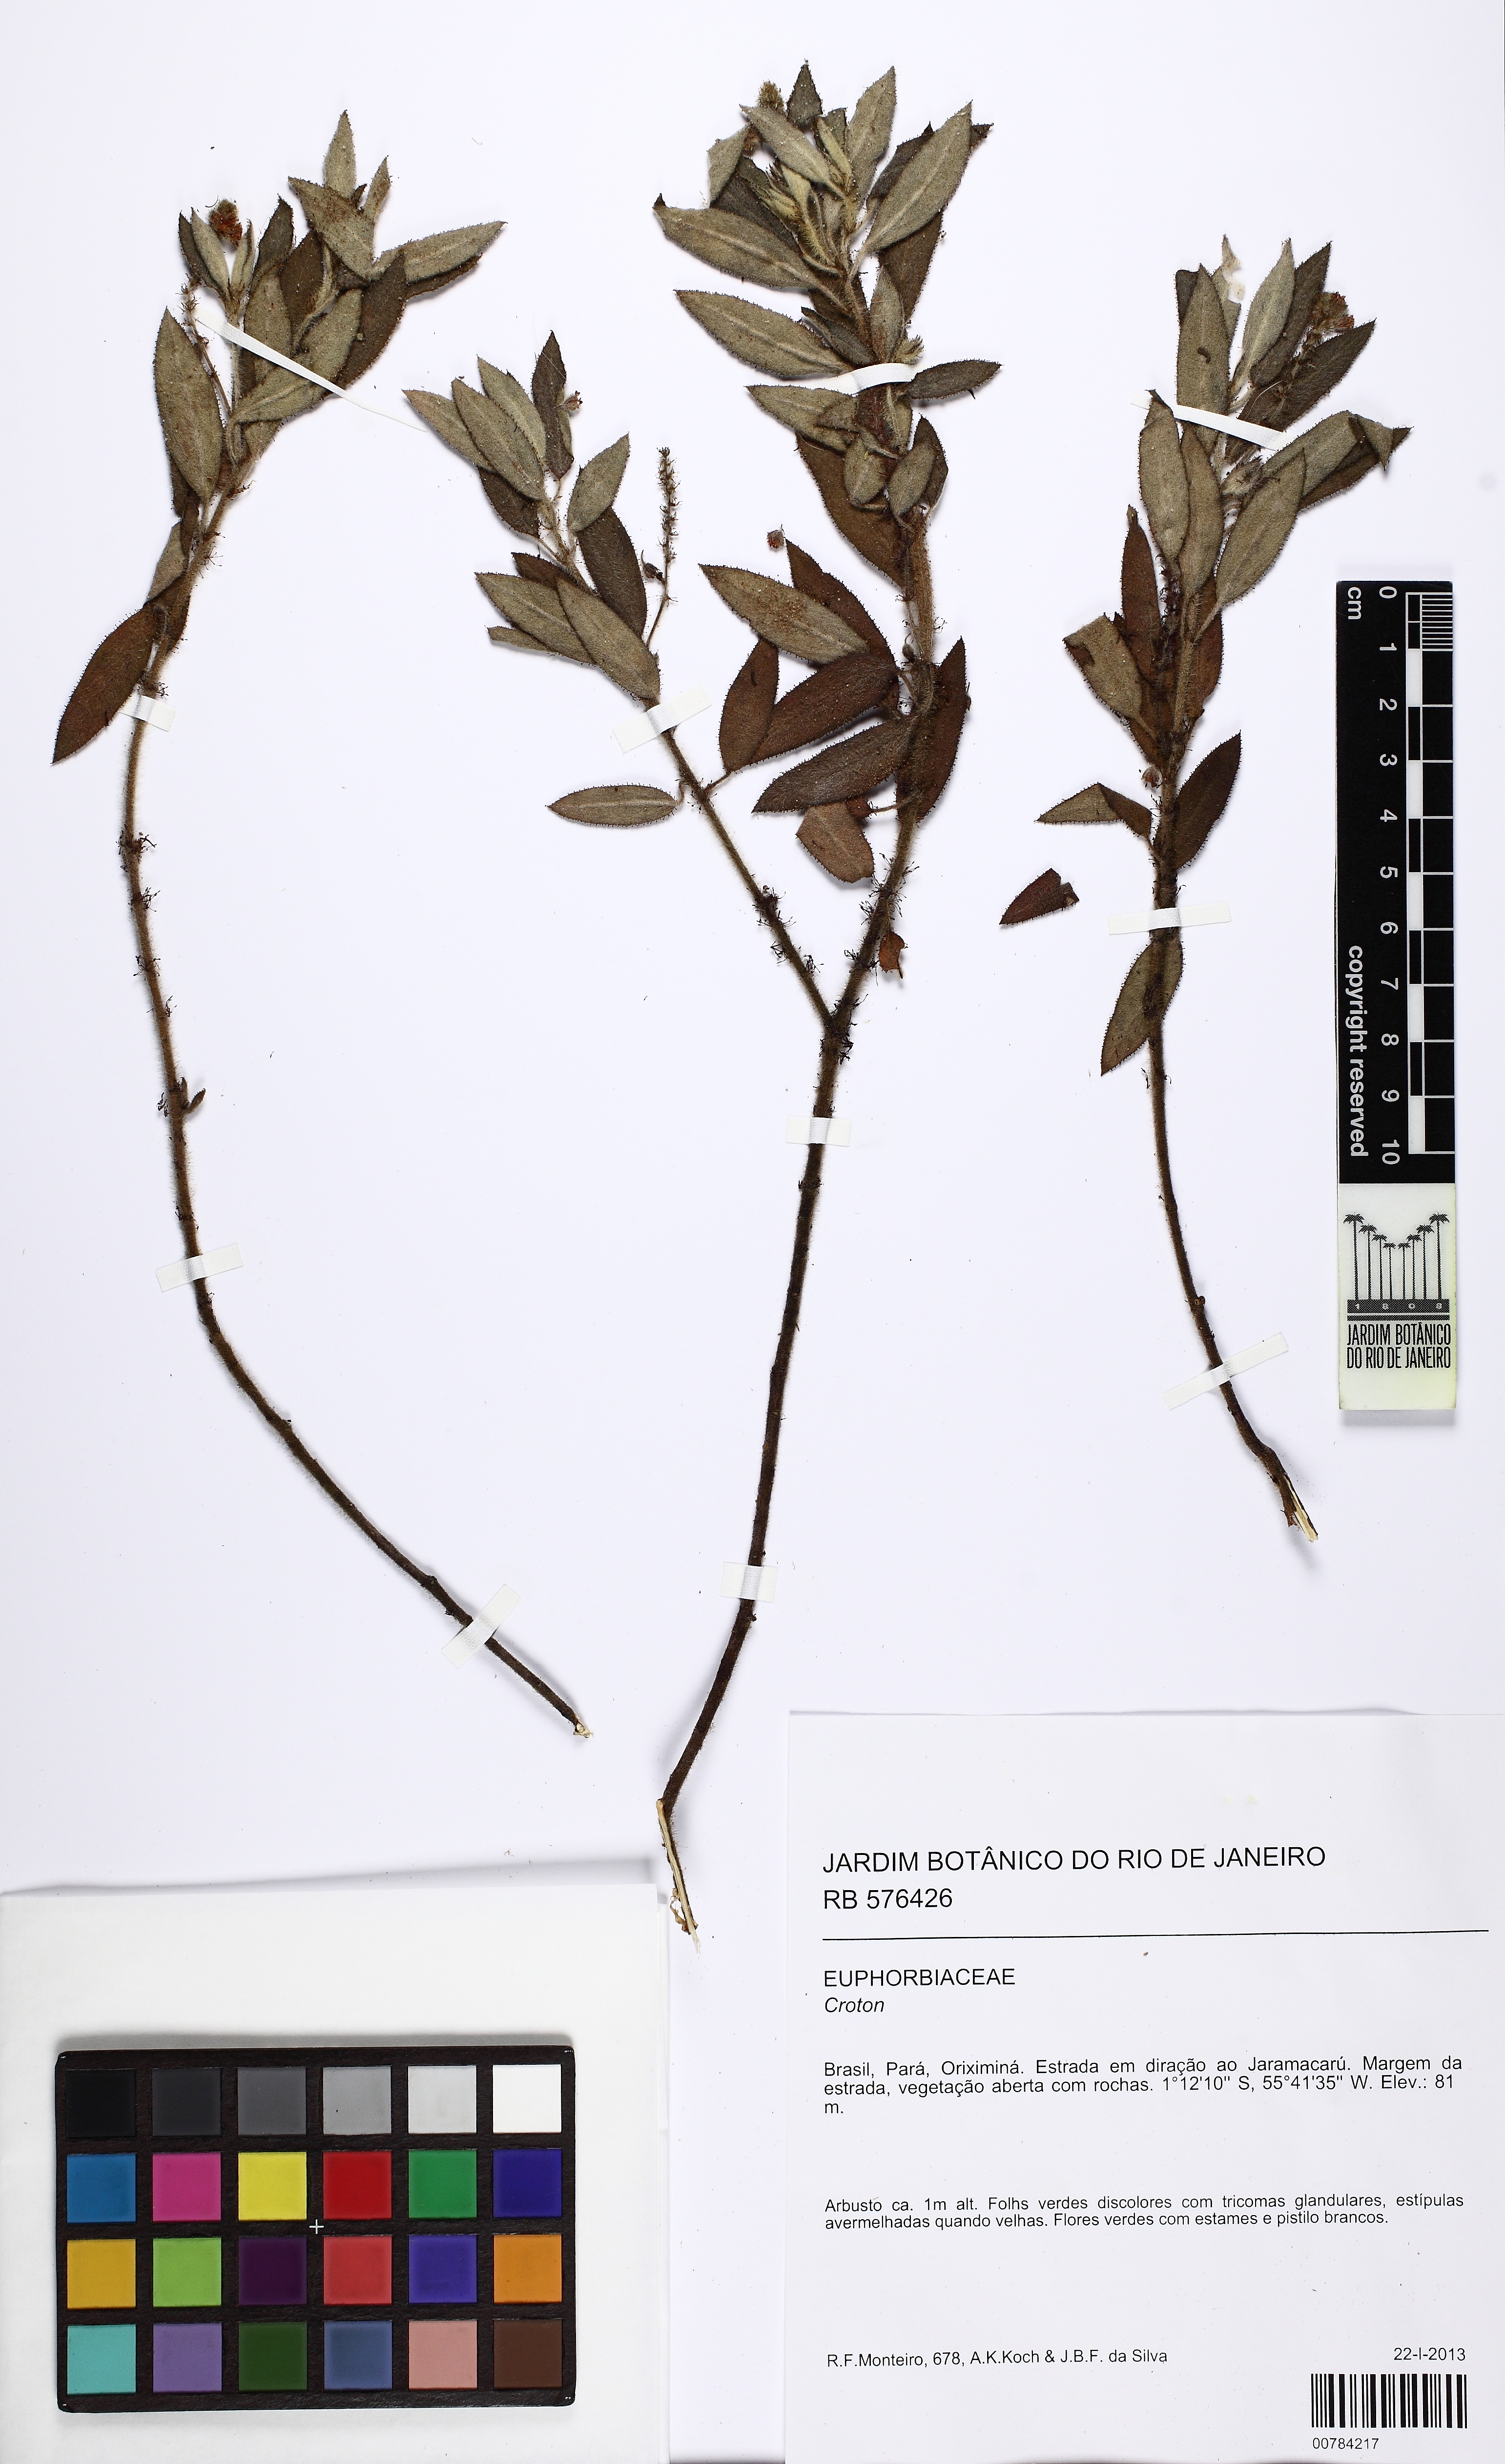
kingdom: Plantae
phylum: Tracheophyta
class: Magnoliopsida
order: Malpighiales
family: Euphorbiaceae
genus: Croton
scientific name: Croton arirambae
